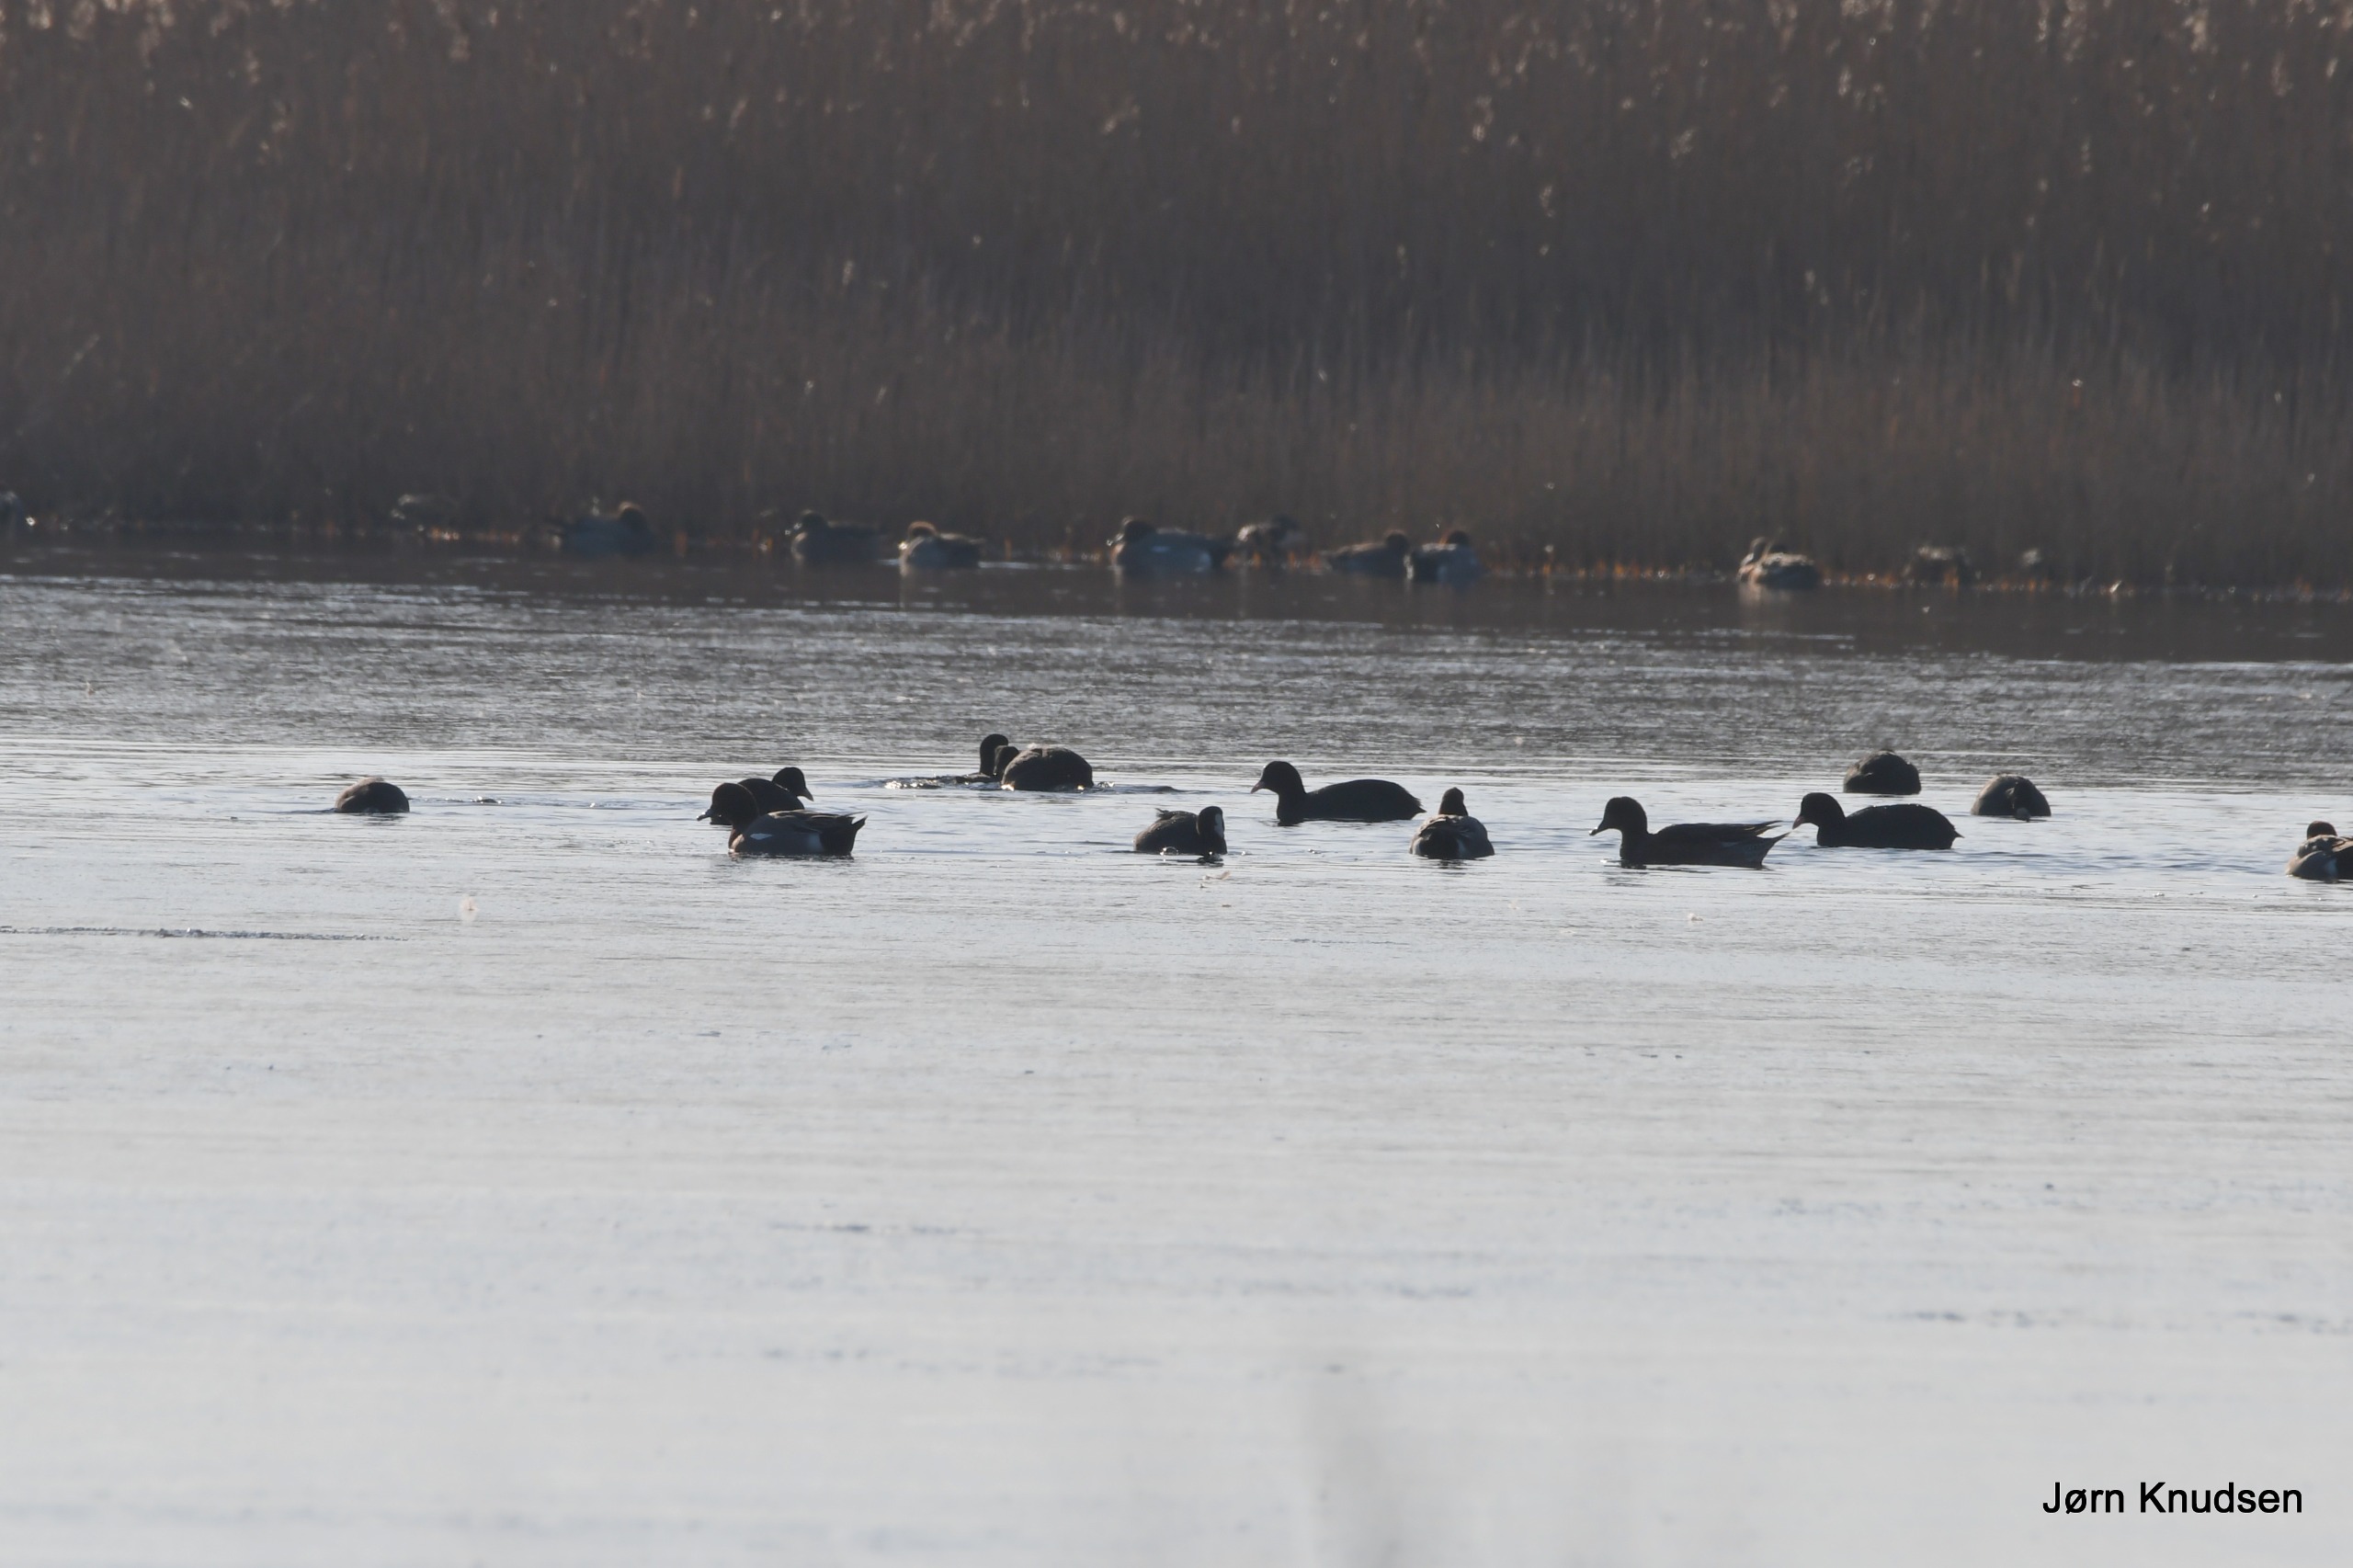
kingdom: Animalia
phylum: Chordata
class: Aves
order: Gruiformes
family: Rallidae
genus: Fulica
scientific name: Fulica atra
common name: Blishøne
